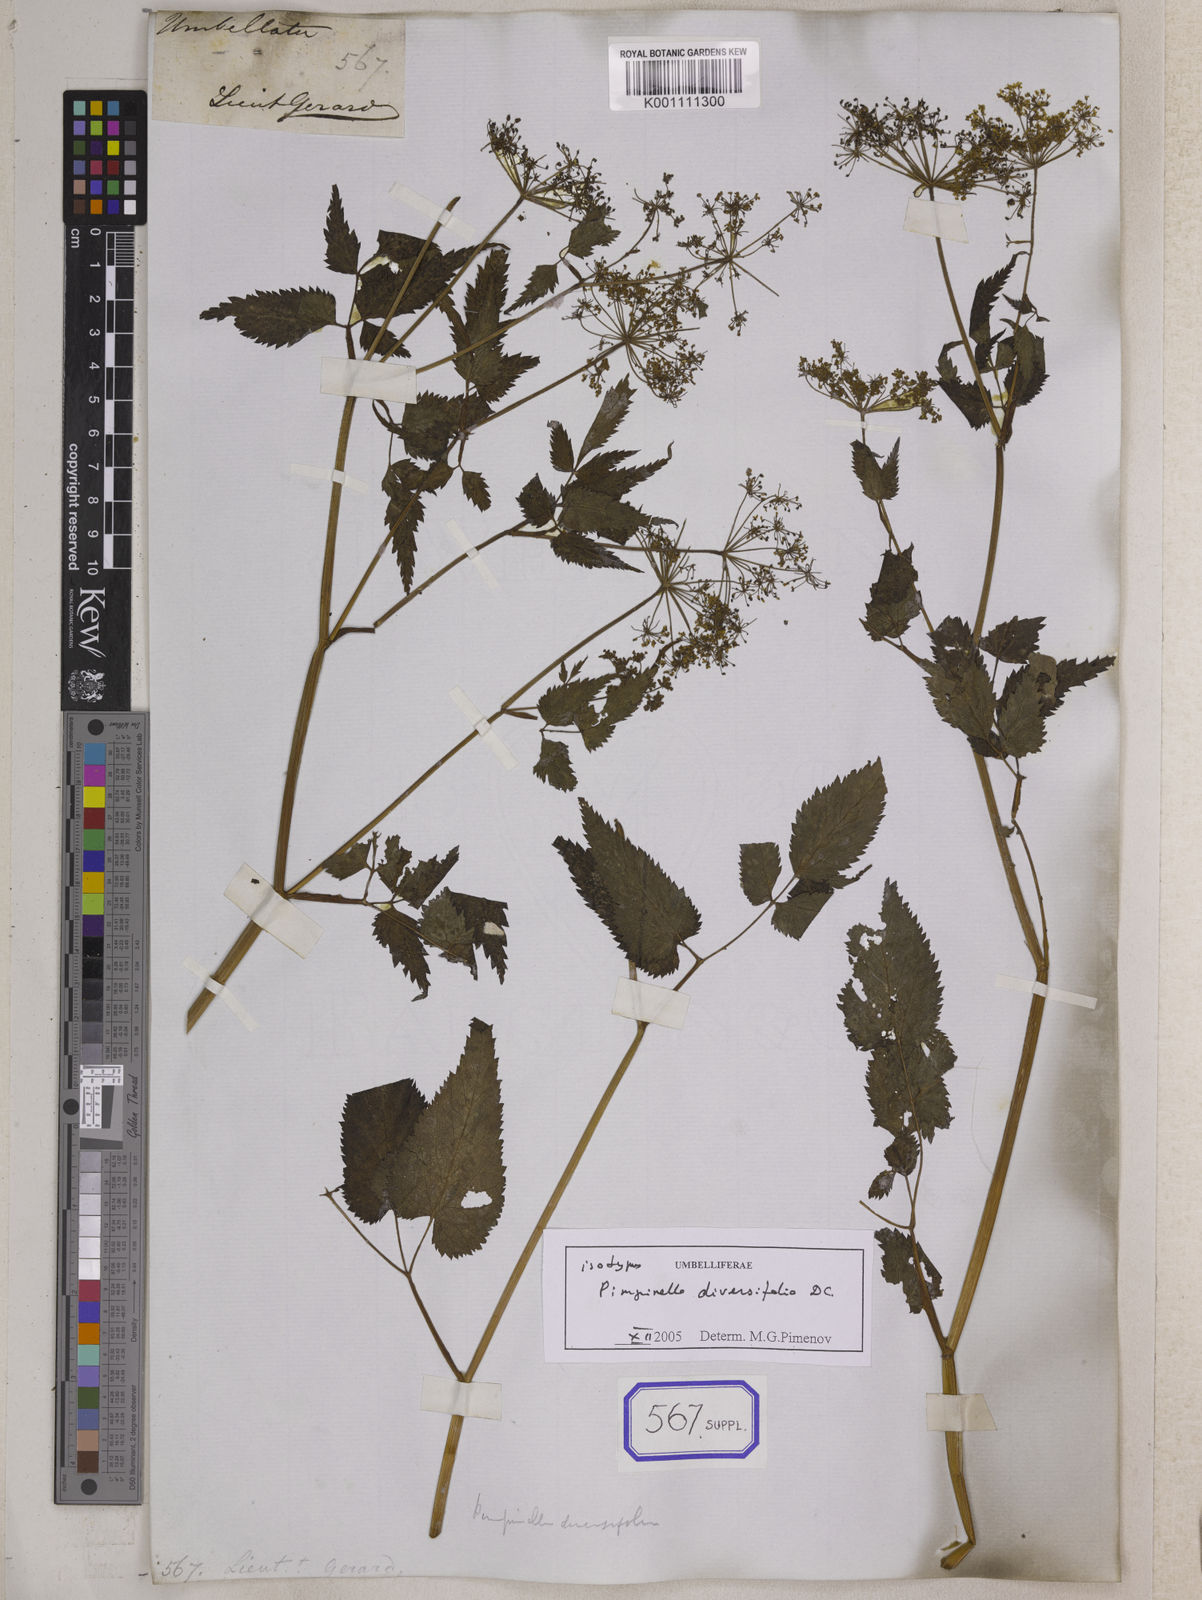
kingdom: Plantae
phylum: Tracheophyta
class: Magnoliopsida
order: Apiales
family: Apiaceae
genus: Pimpinella
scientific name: Pimpinella diversifolia
